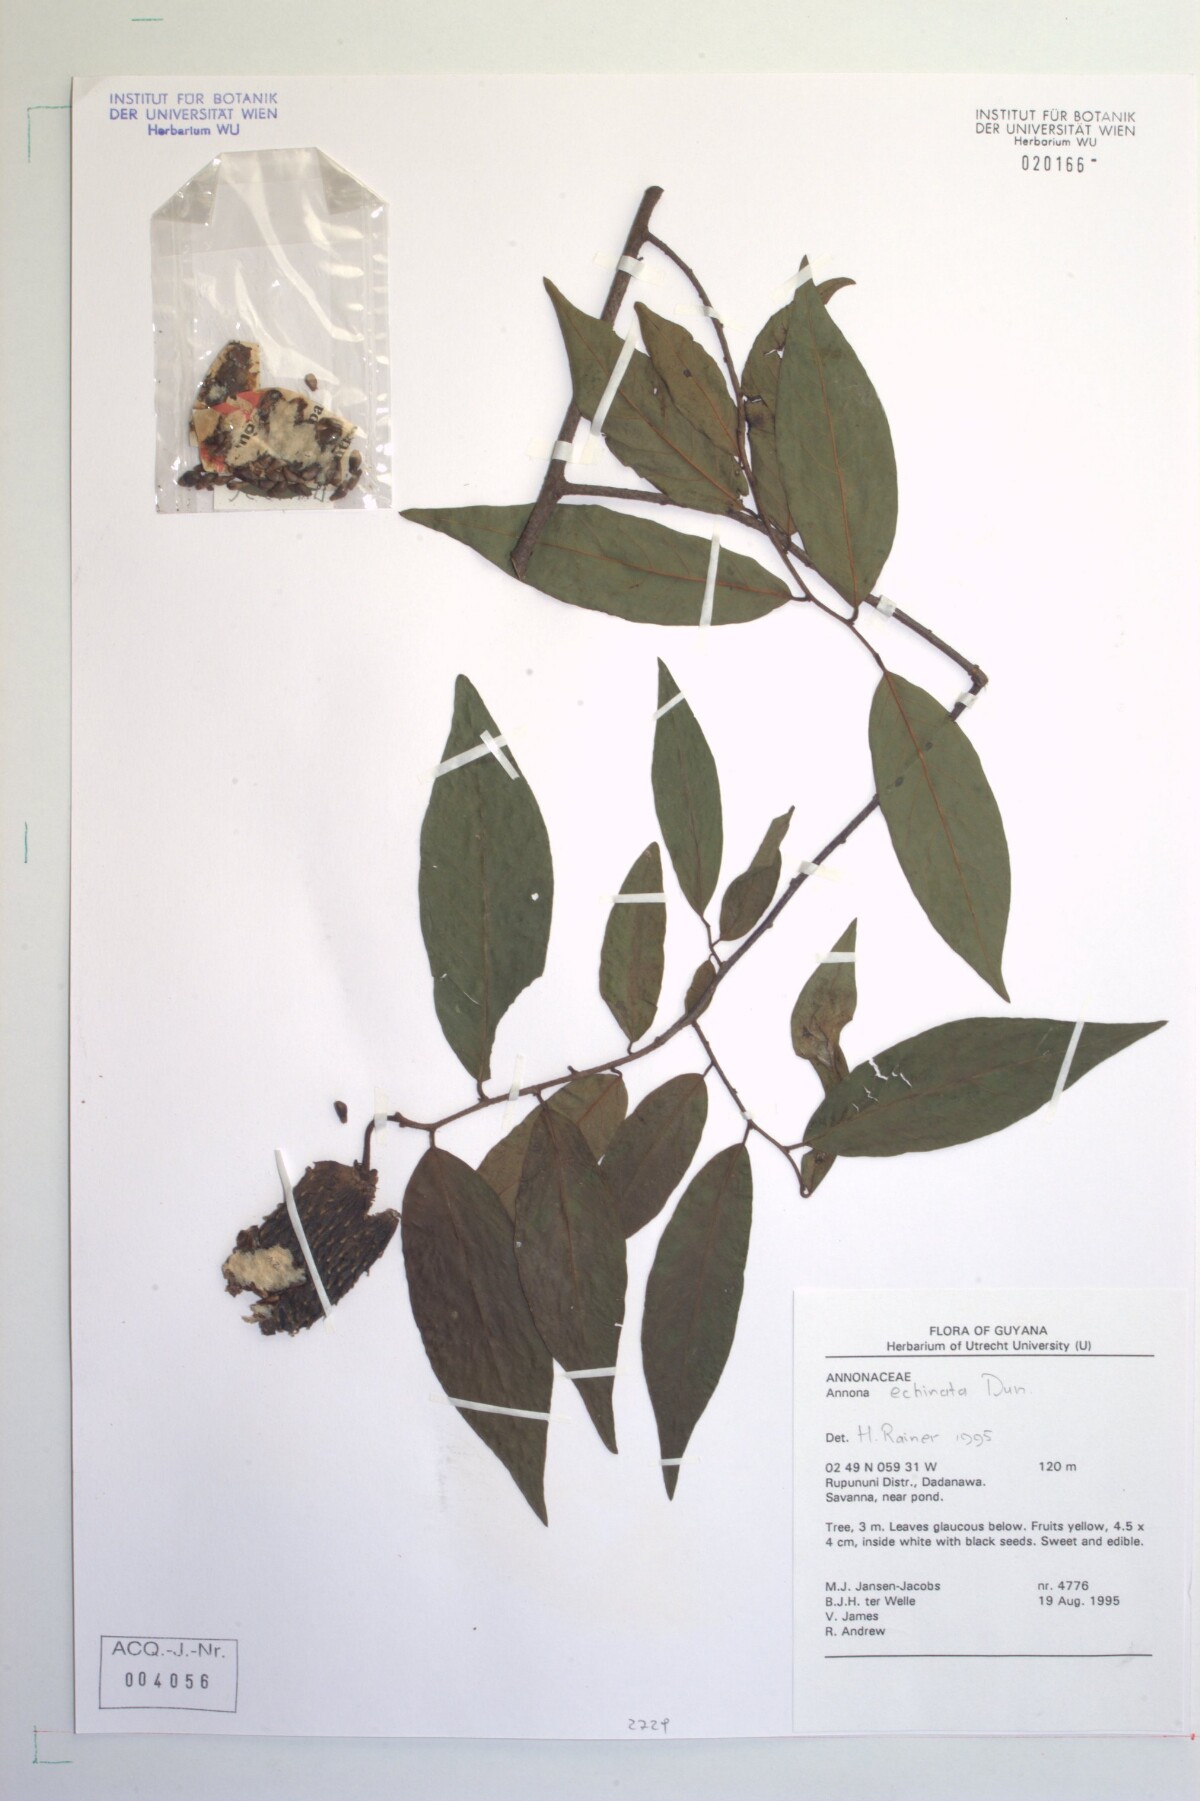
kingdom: Plantae
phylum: Tracheophyta
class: Magnoliopsida
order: Magnoliales
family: Annonaceae
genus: Annona
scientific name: Annona
